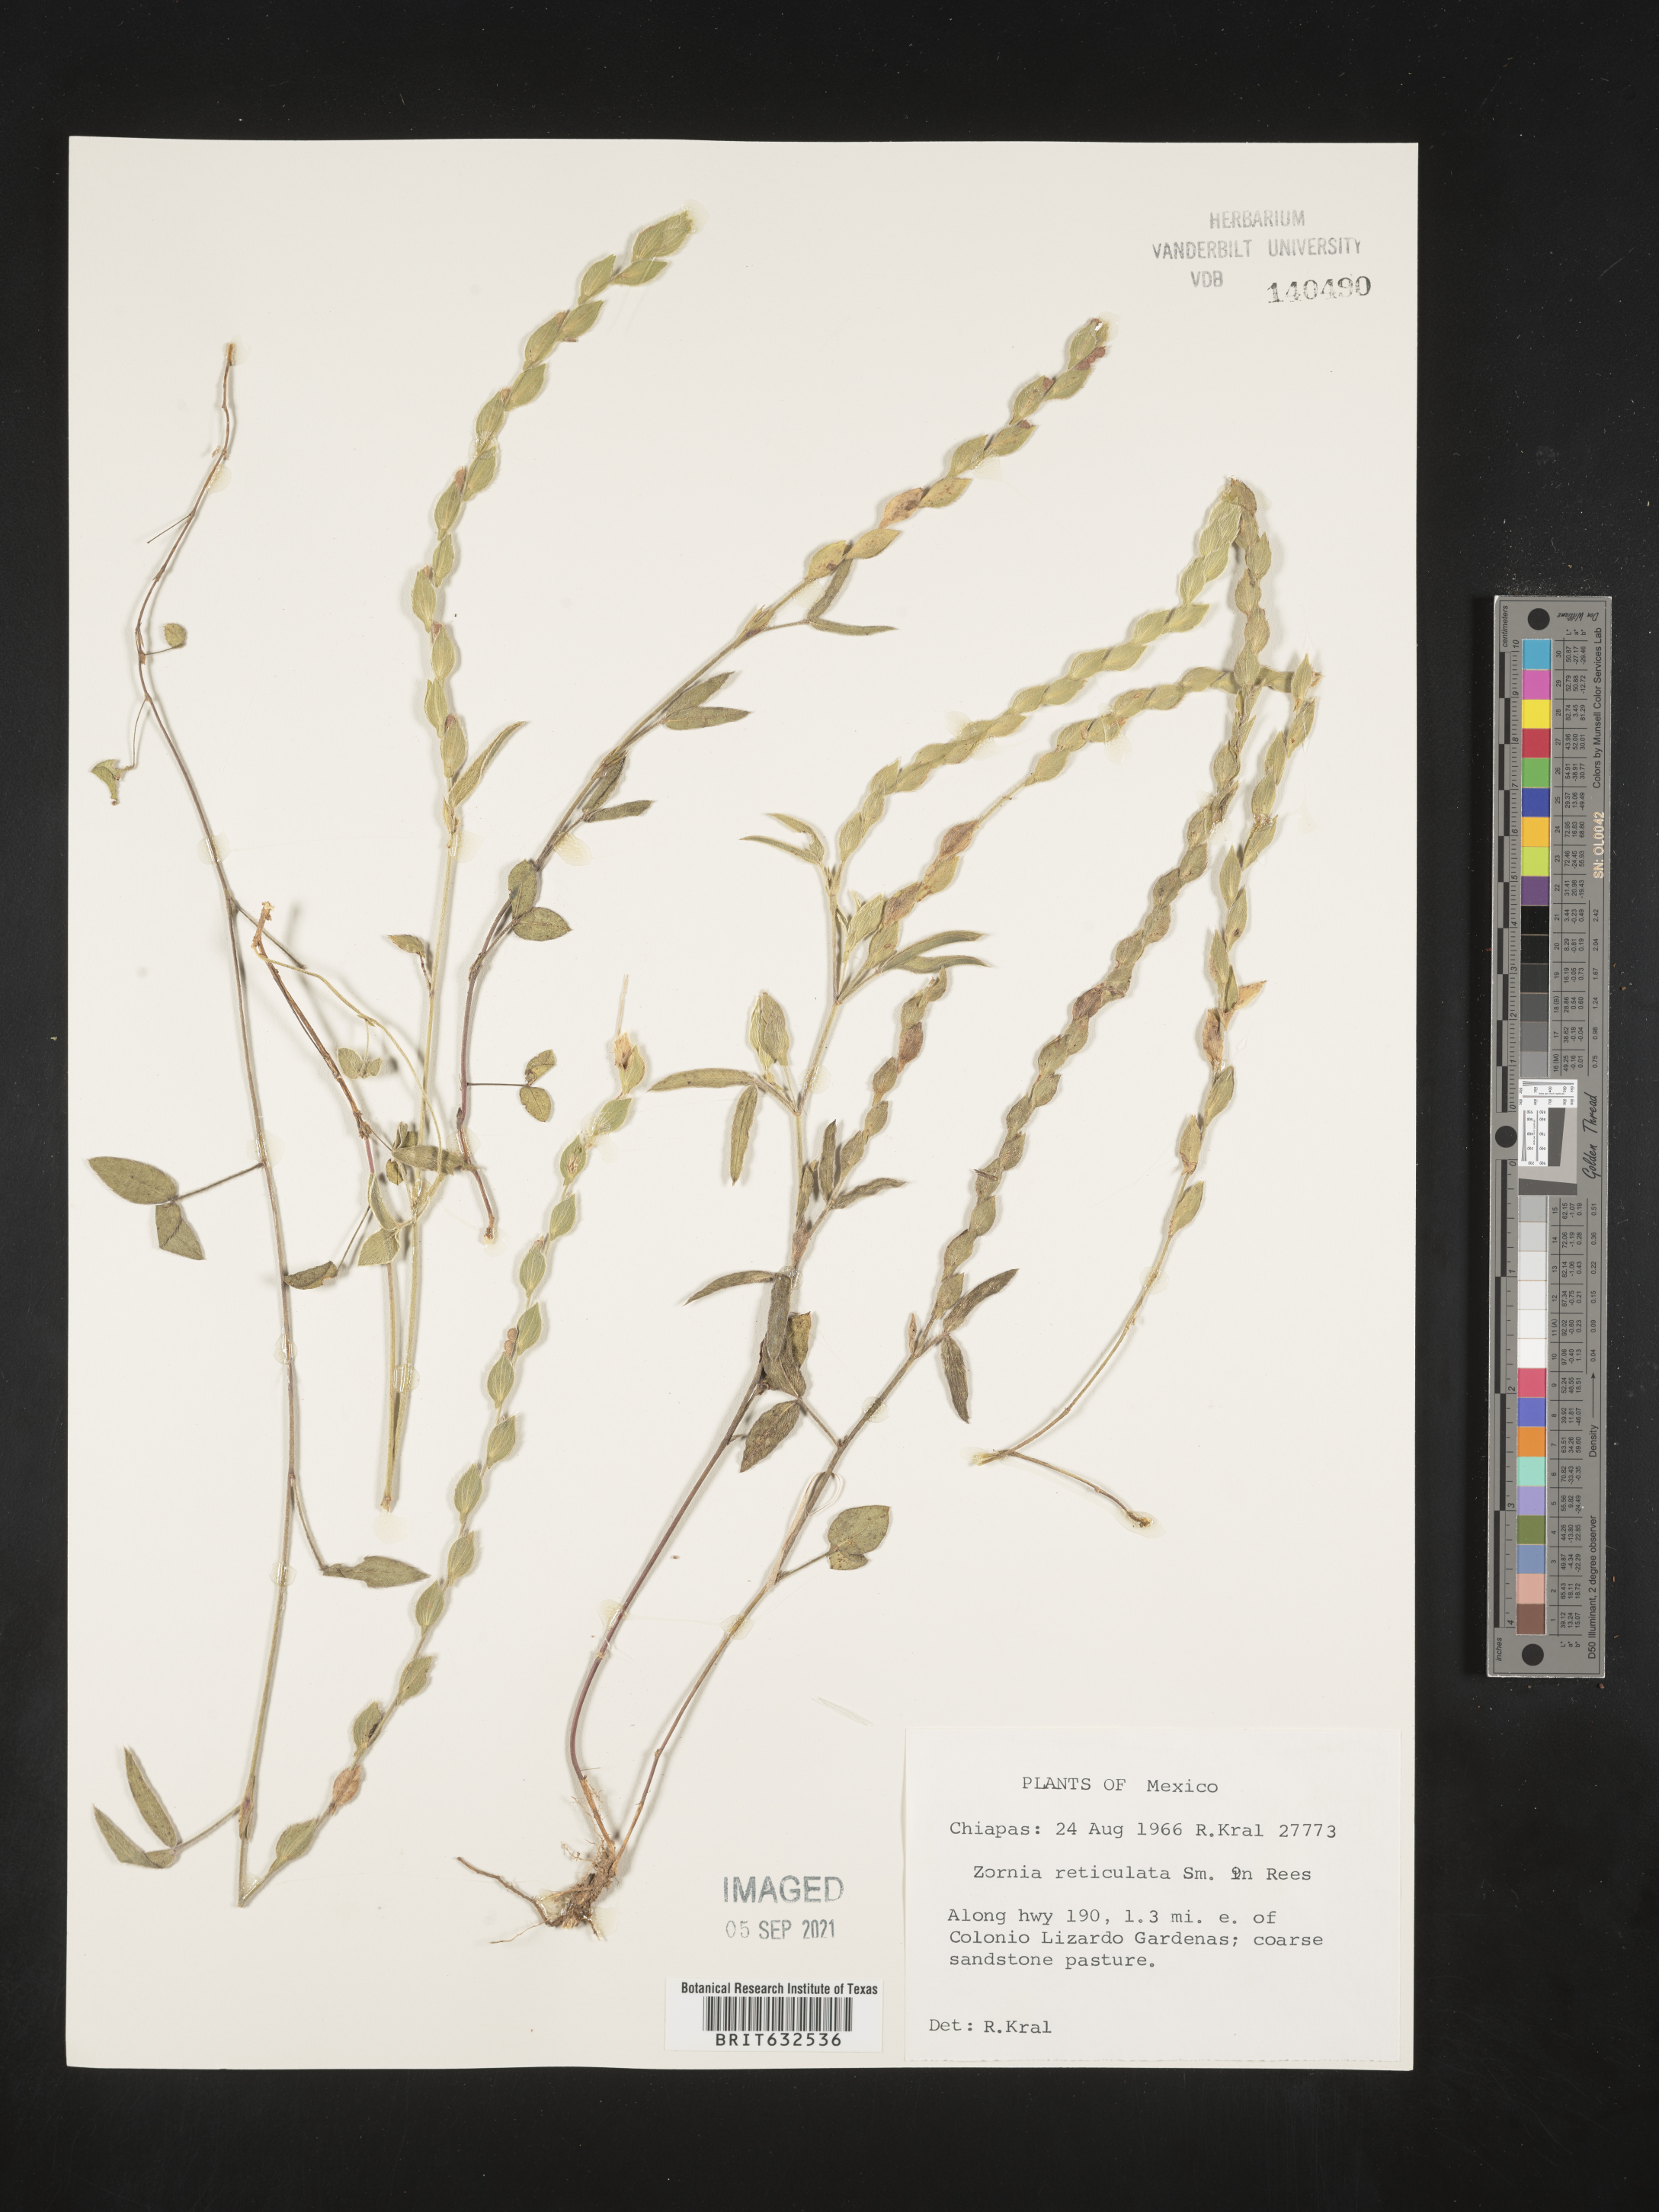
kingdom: Plantae
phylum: Tracheophyta
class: Magnoliopsida
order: Fabales
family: Fabaceae
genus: Zornia
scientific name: Zornia
